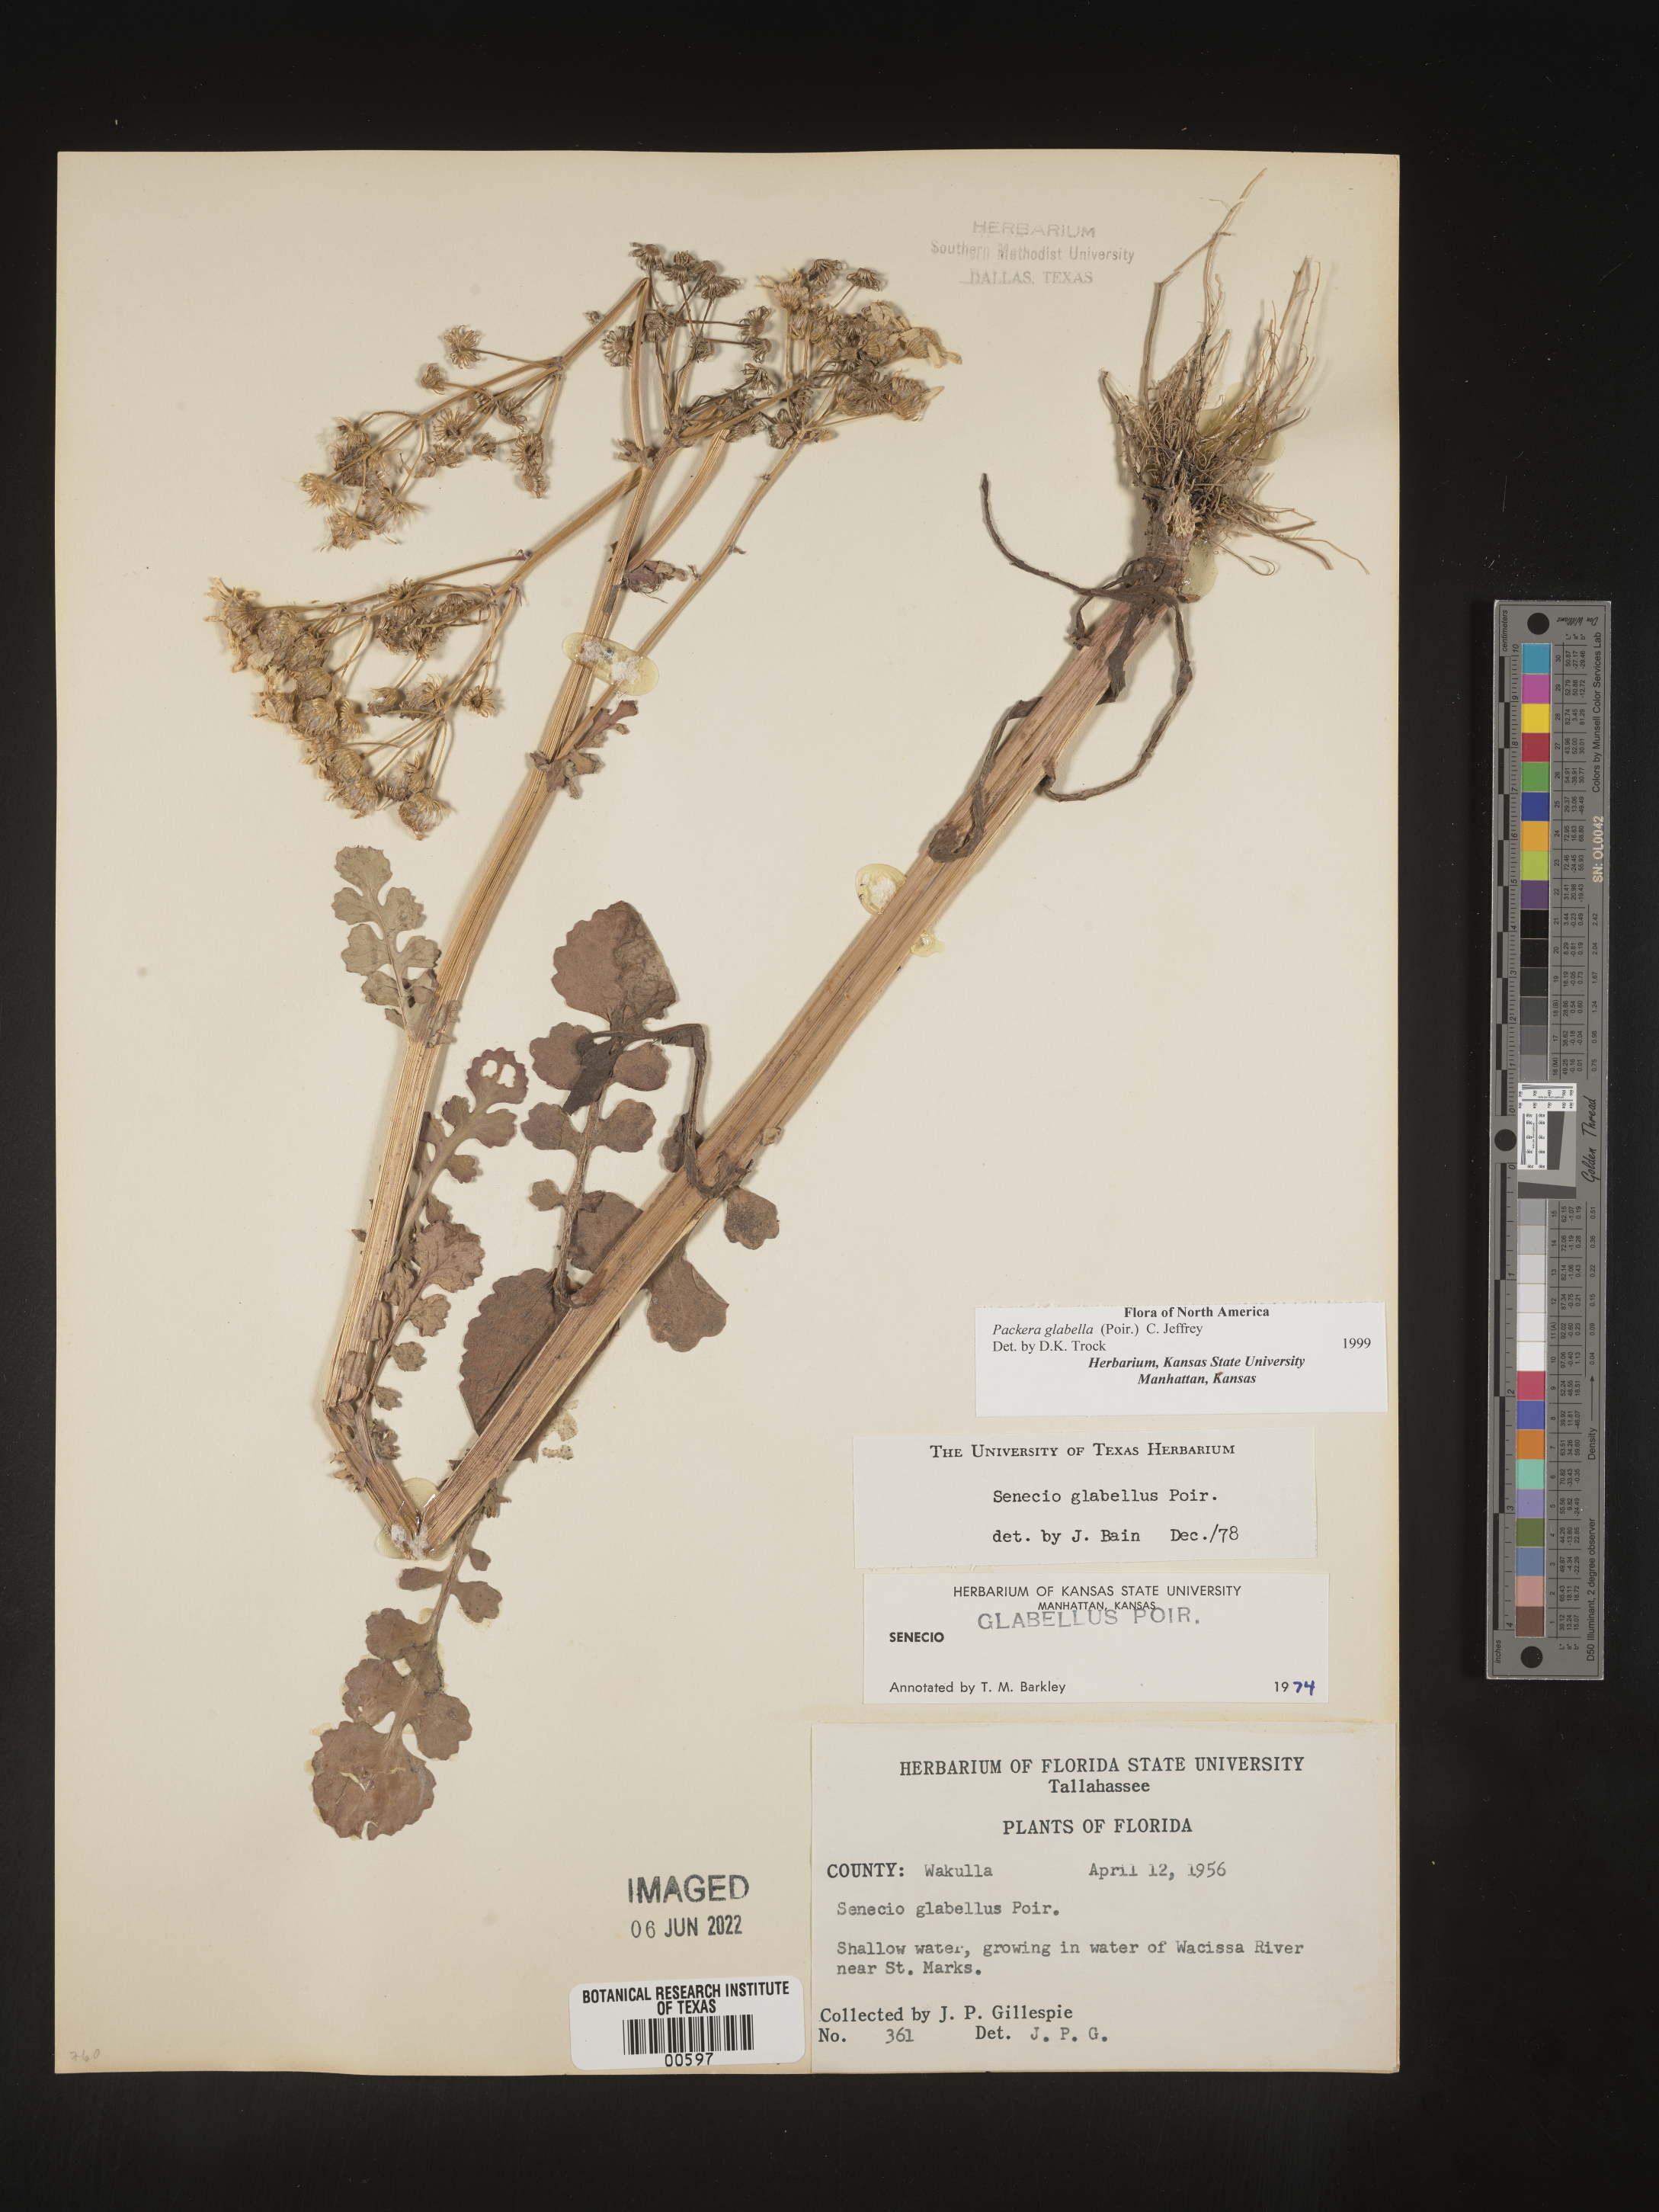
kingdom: Plantae
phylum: Tracheophyta
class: Magnoliopsida
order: Asterales
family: Asteraceae
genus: Packera
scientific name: Packera glabella
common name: Butterweed
